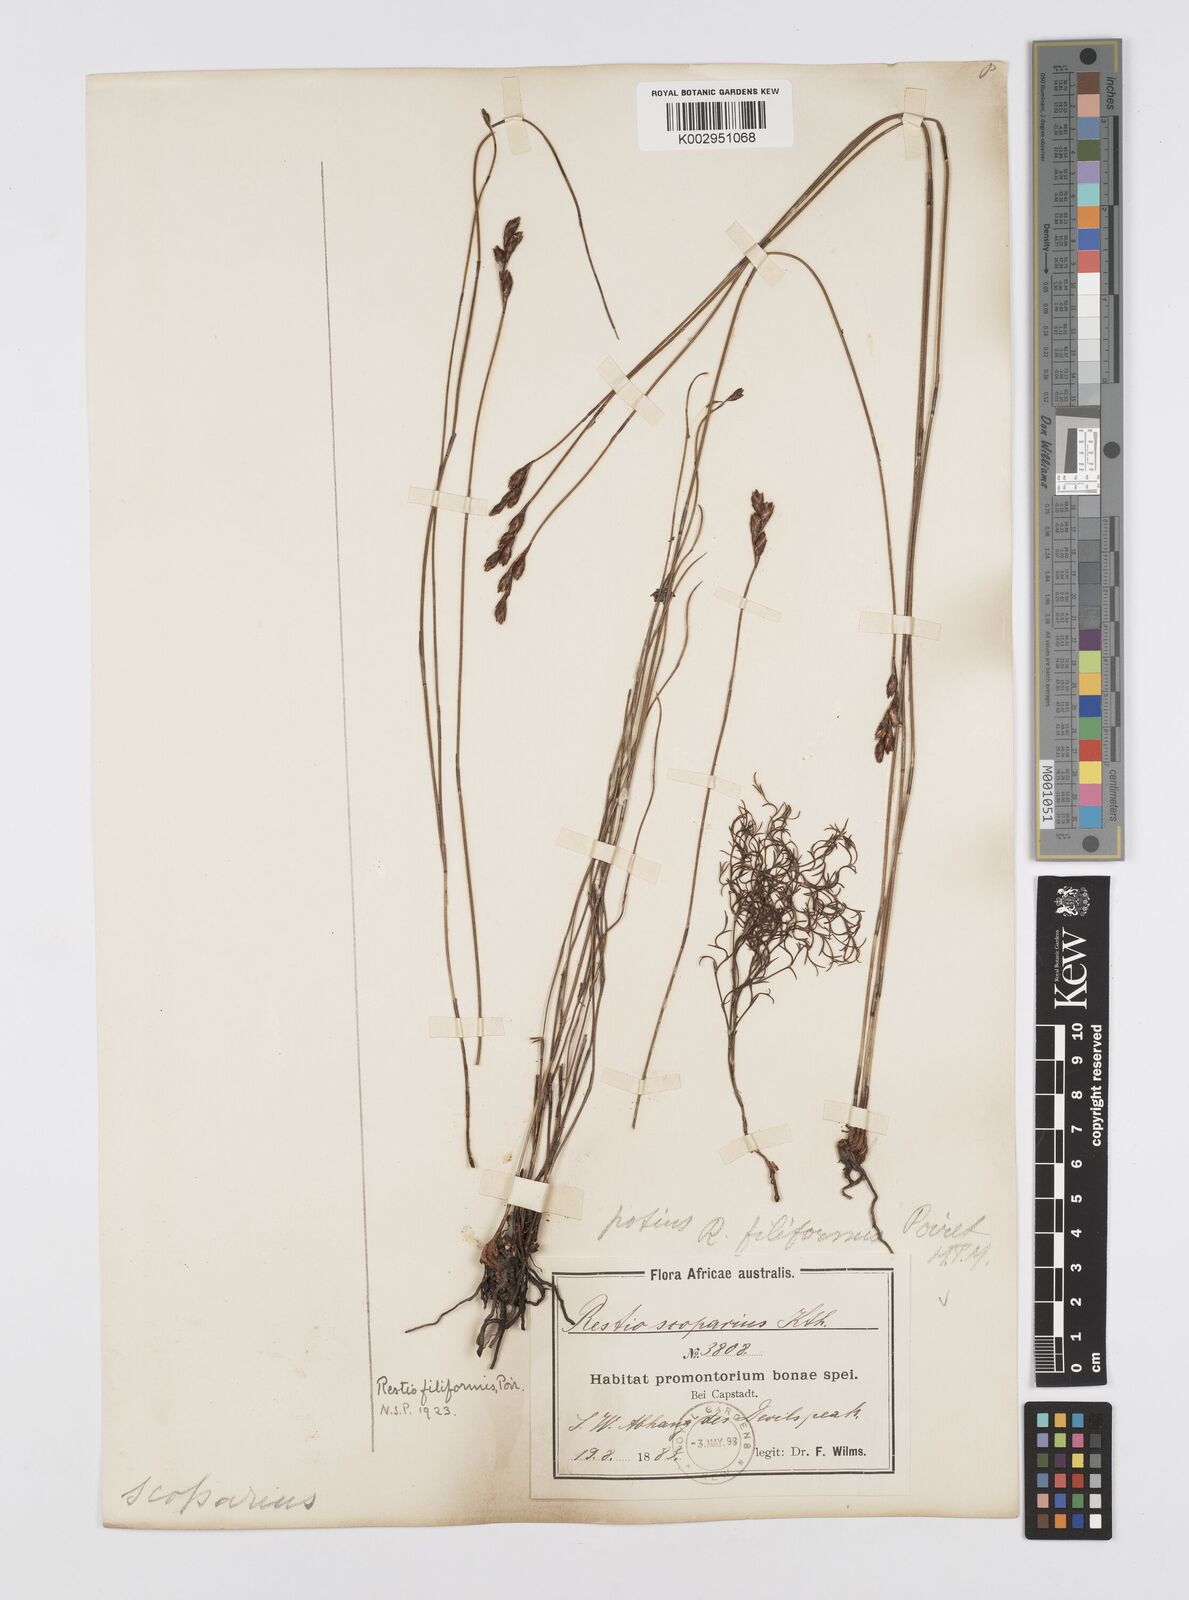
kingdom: Plantae
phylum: Tracheophyta
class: Liliopsida
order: Poales
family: Restionaceae
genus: Restio
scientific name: Restio filiformis
